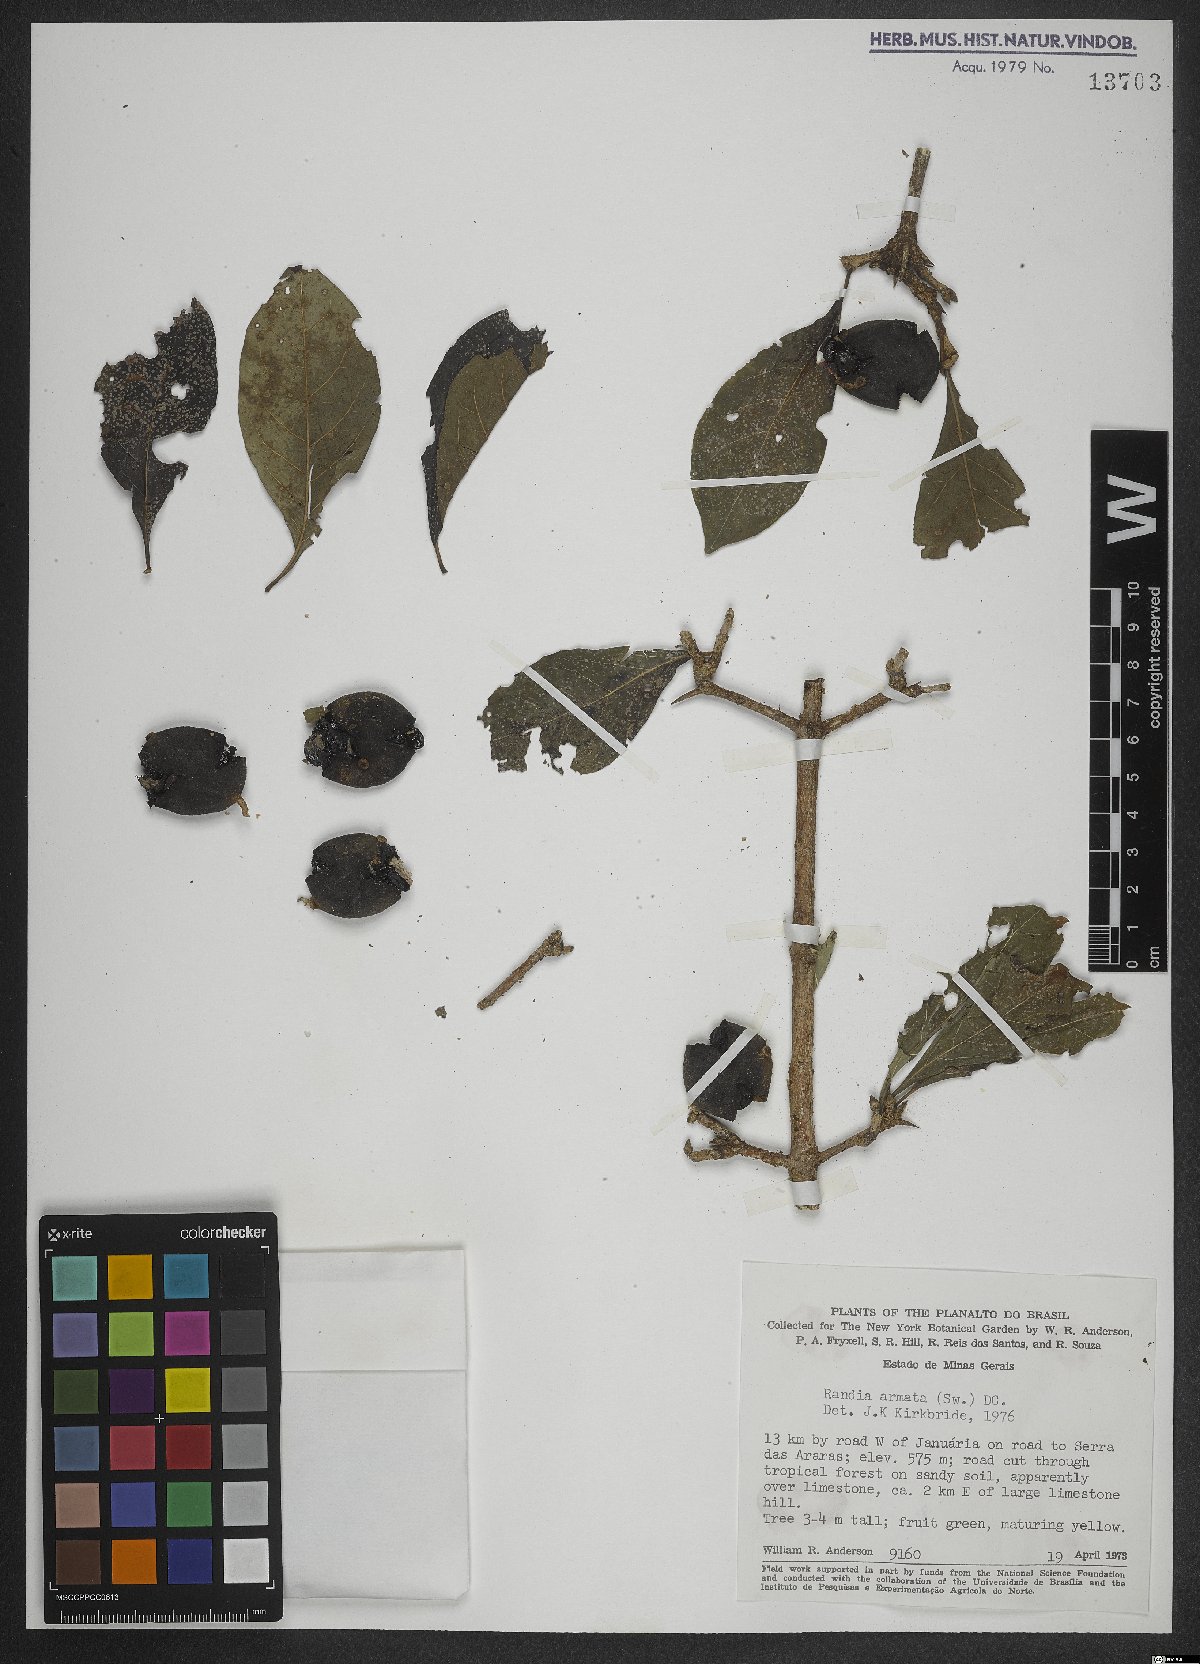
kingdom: Plantae
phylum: Tracheophyta
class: Magnoliopsida
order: Gentianales
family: Rubiaceae
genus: Randia
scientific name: Randia armata
